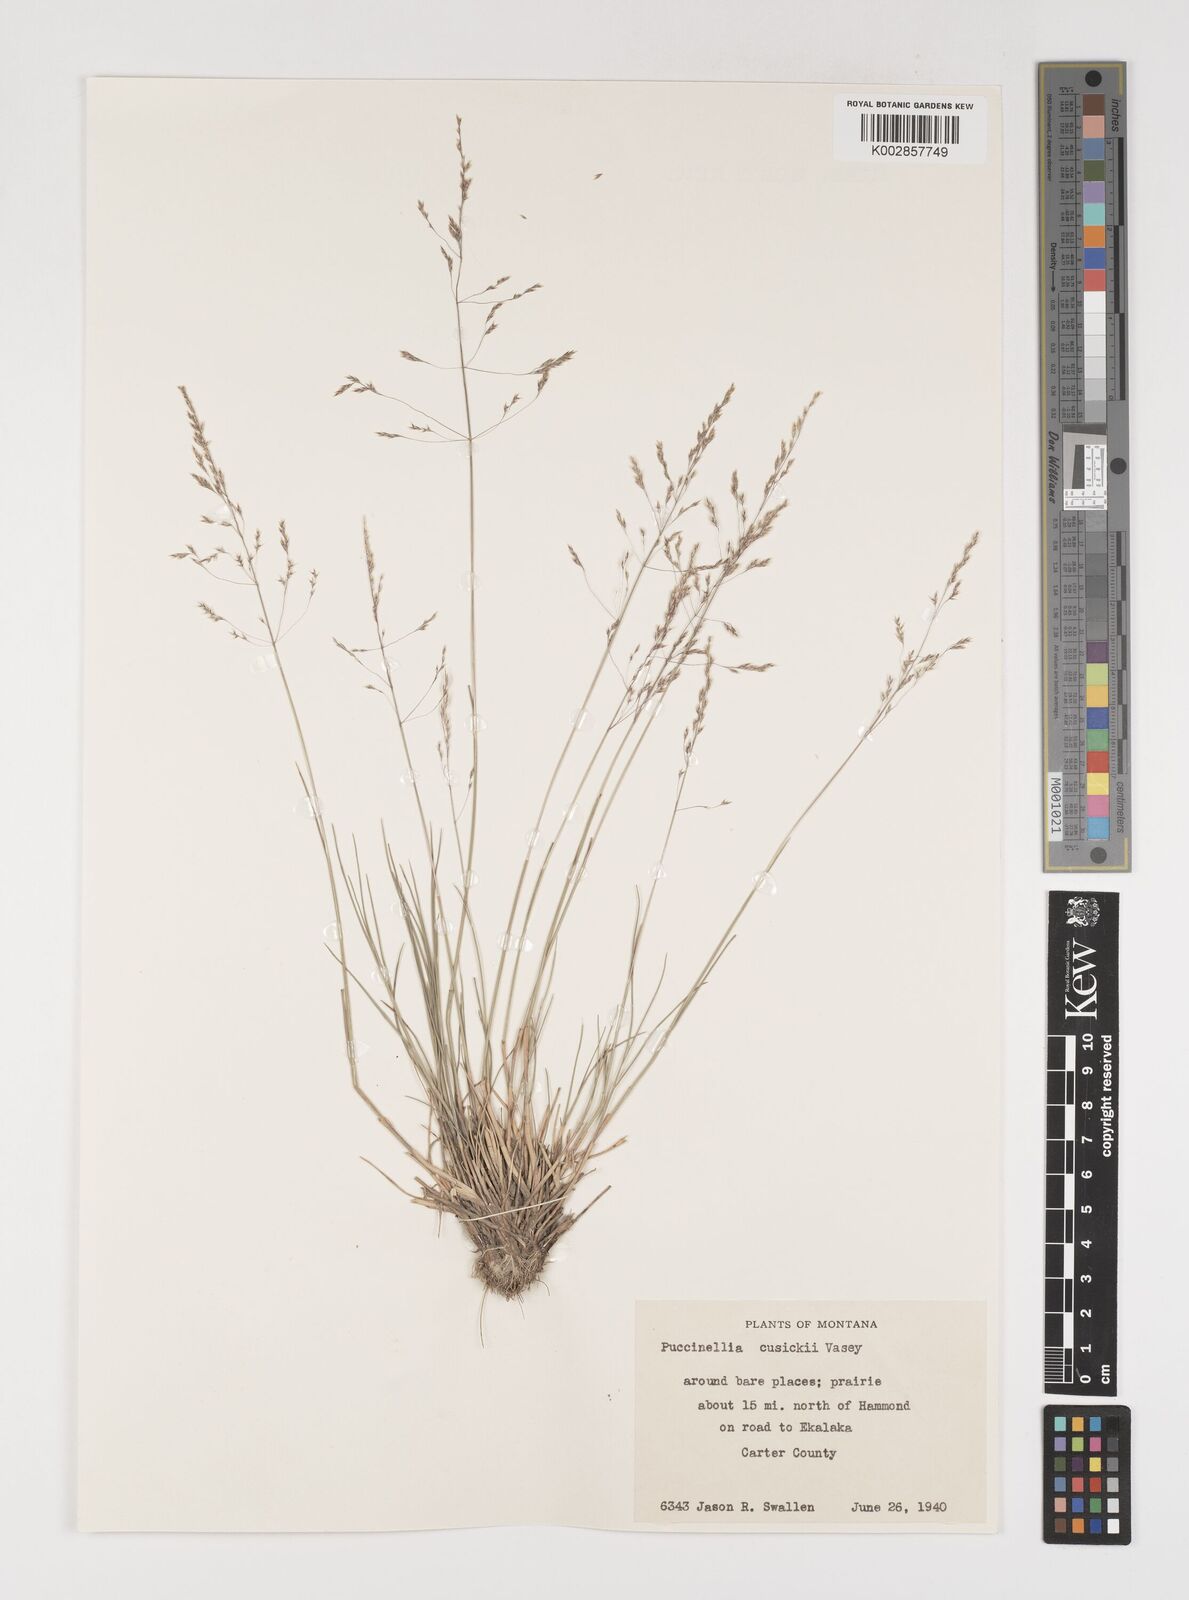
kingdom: Plantae
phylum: Tracheophyta
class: Liliopsida
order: Poales
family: Poaceae
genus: Puccinellia
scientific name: Puccinellia nuttalliana
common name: Nuttall's alkali grass
